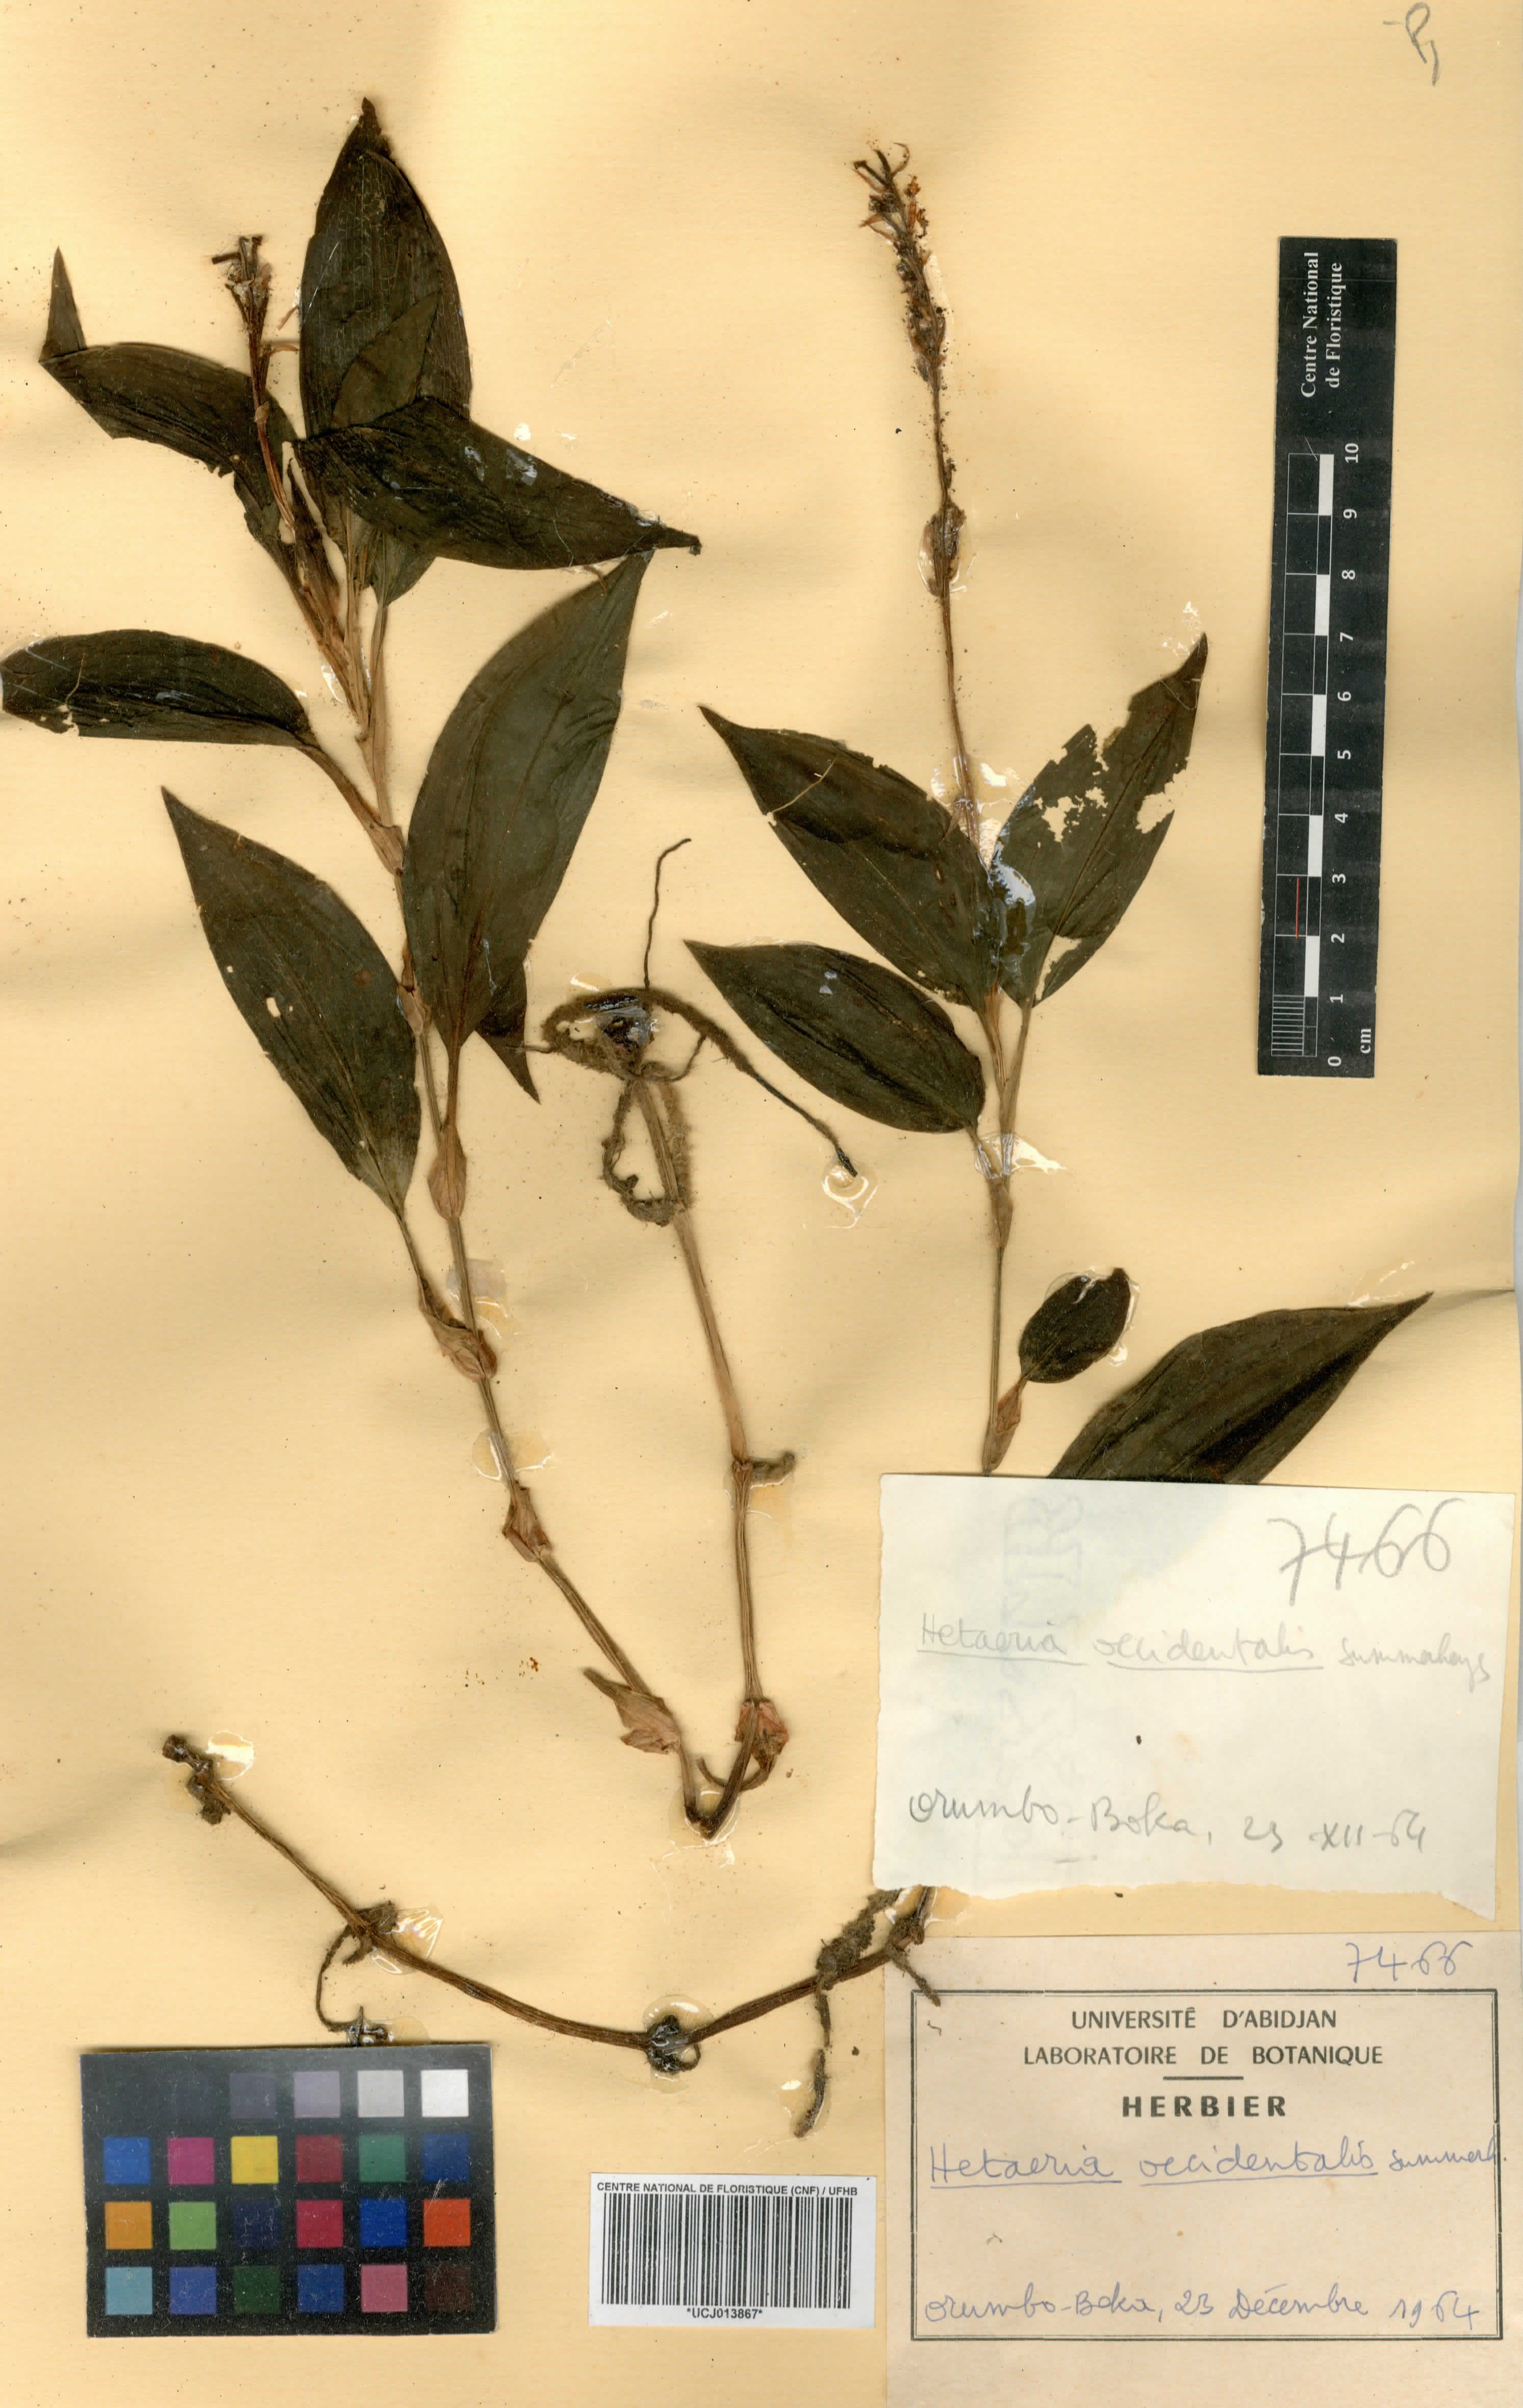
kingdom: Plantae
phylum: Tracheophyta
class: Liliopsida
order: Asparagales
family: Orchidaceae
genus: Hetaeria
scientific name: Hetaeria occidentalis
